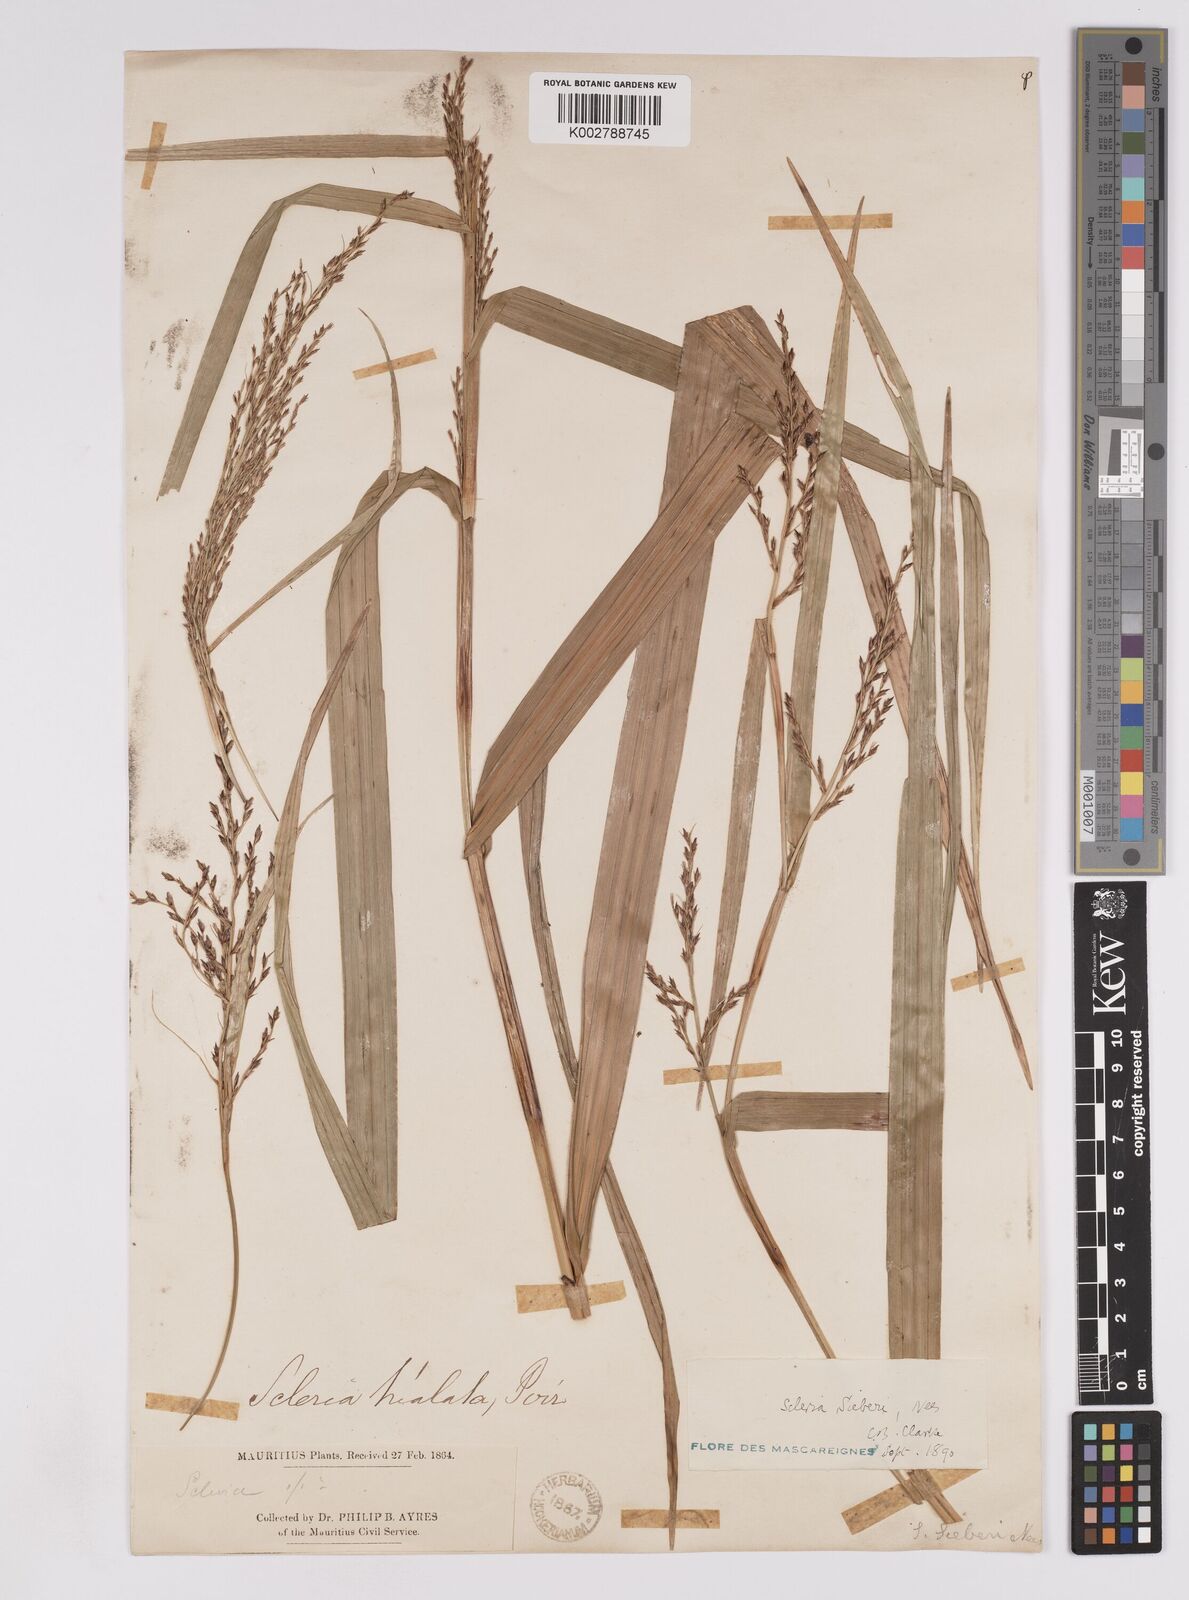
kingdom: Plantae
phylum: Tracheophyta
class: Liliopsida
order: Poales
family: Cyperaceae
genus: Scleria
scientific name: Scleria gaertneri
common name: Cortadera blanca
